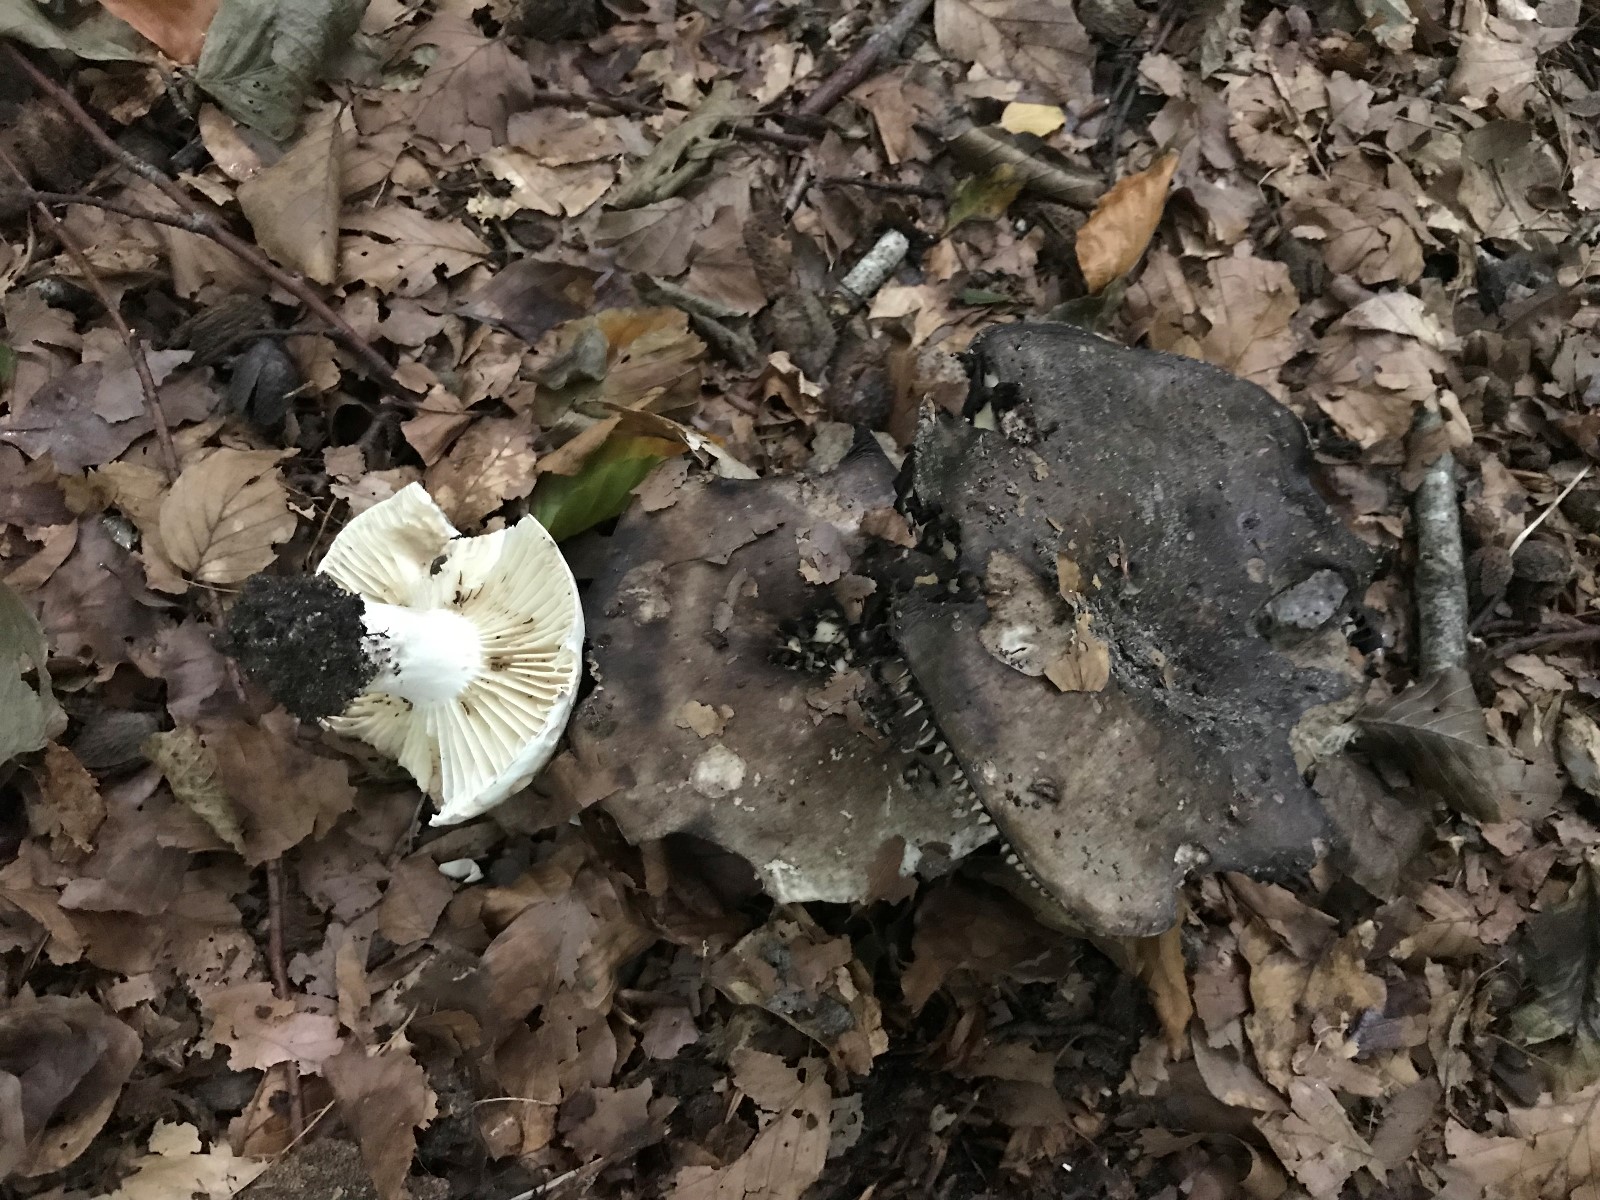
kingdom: Fungi
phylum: Basidiomycota
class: Agaricomycetes
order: Russulales
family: Russulaceae
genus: Russula
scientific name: Russula adusta
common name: sværtende skørhat
